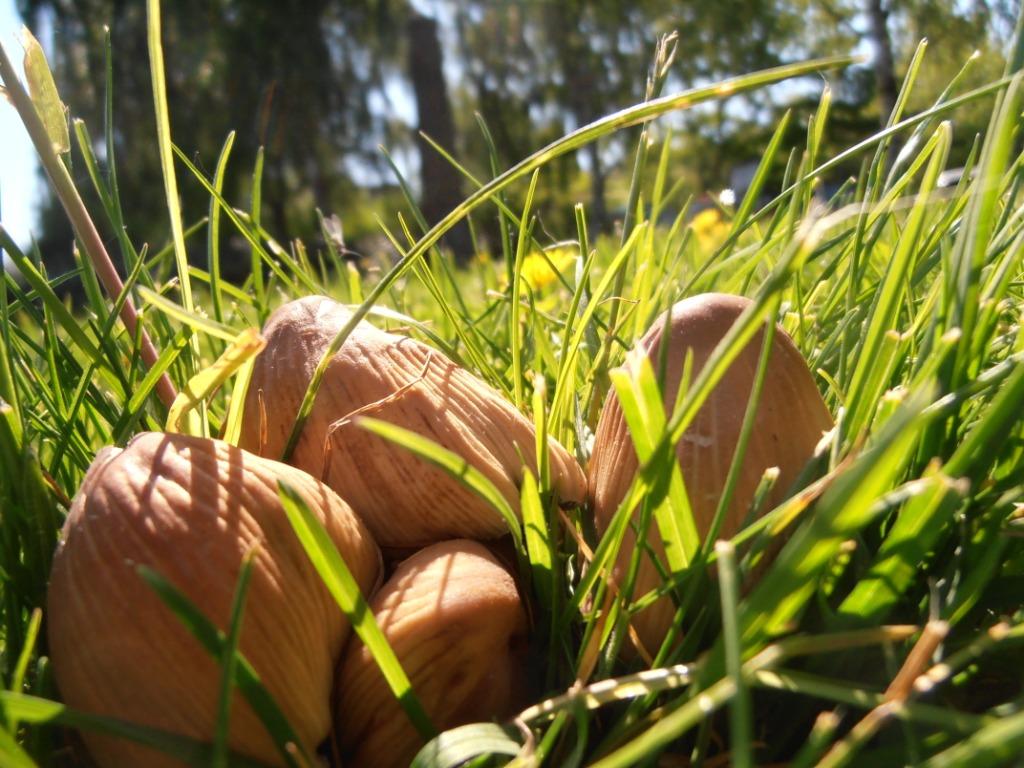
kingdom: Fungi
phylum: Basidiomycota
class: Agaricomycetes
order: Agaricales
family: Psathyrellaceae
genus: Coprinellus
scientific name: Coprinellus micaceus
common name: glimmer-blækhat
